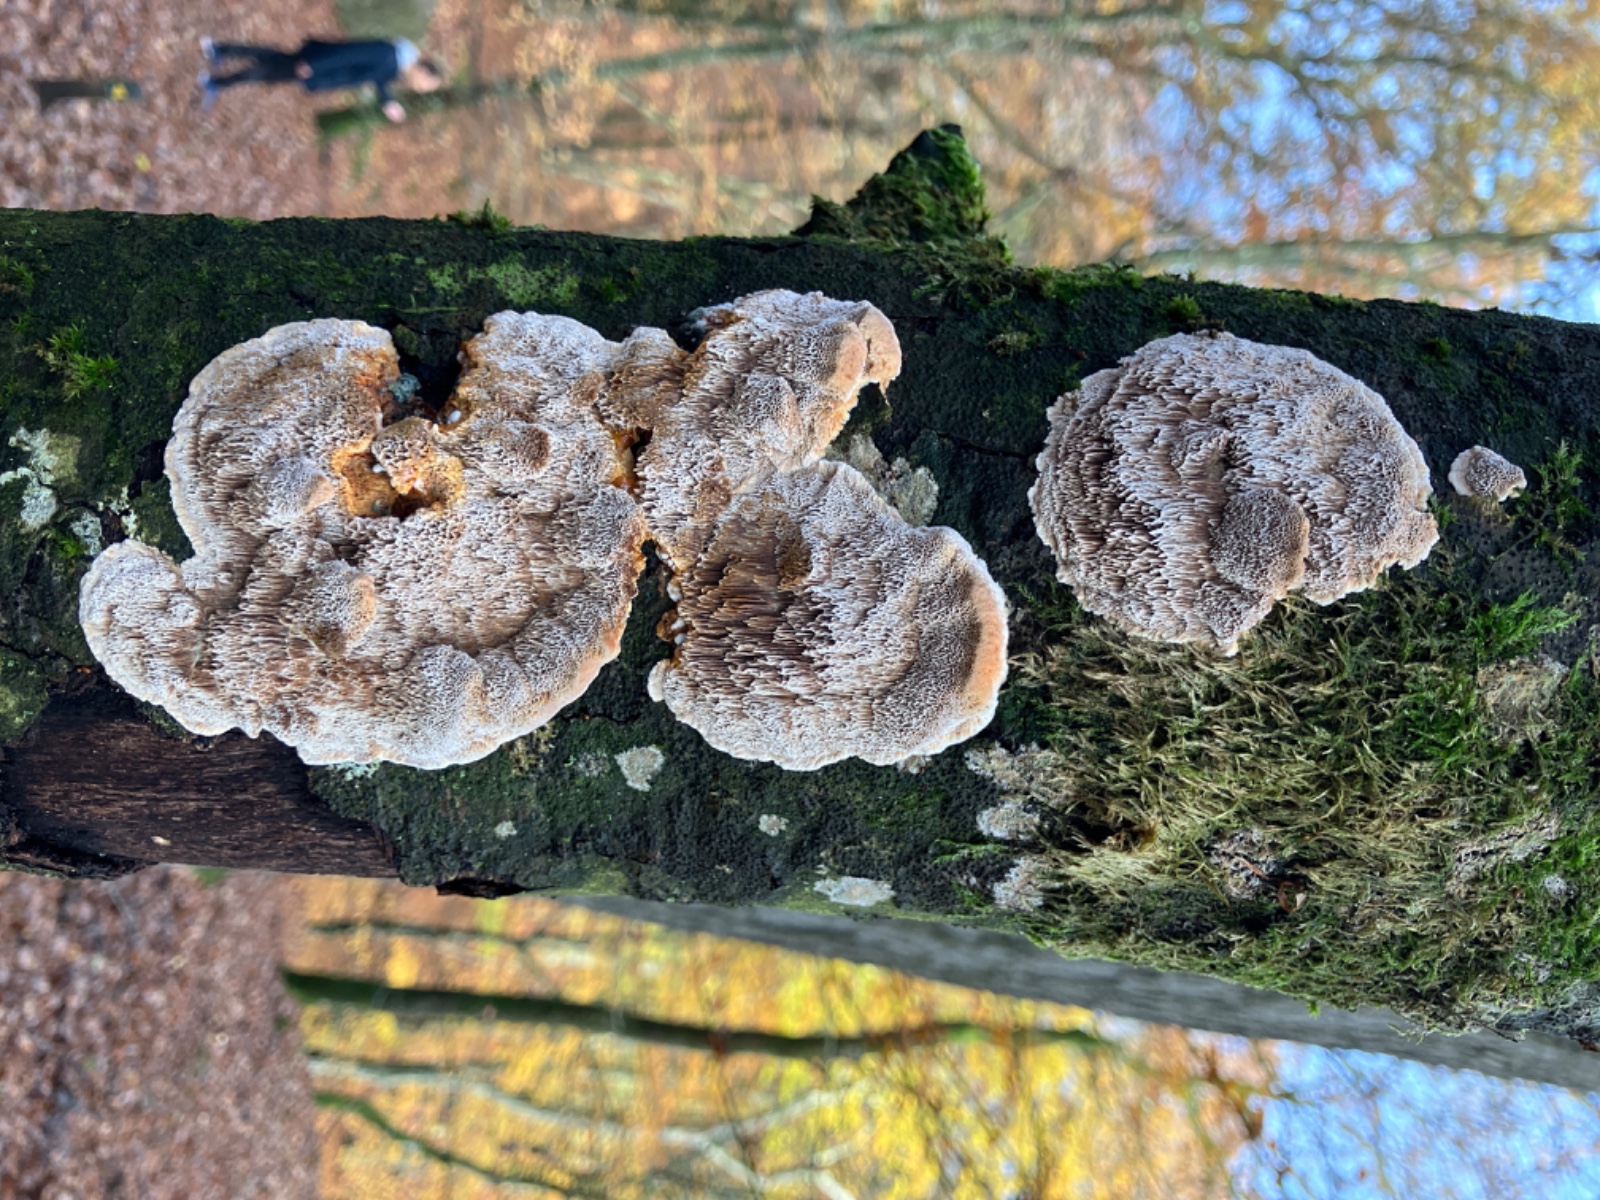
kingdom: Fungi
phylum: Basidiomycota
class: Agaricomycetes
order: Hymenochaetales
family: Hymenochaetaceae
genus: Mensularia
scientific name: Mensularia nodulosa
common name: bøge-spejlporesvamp
